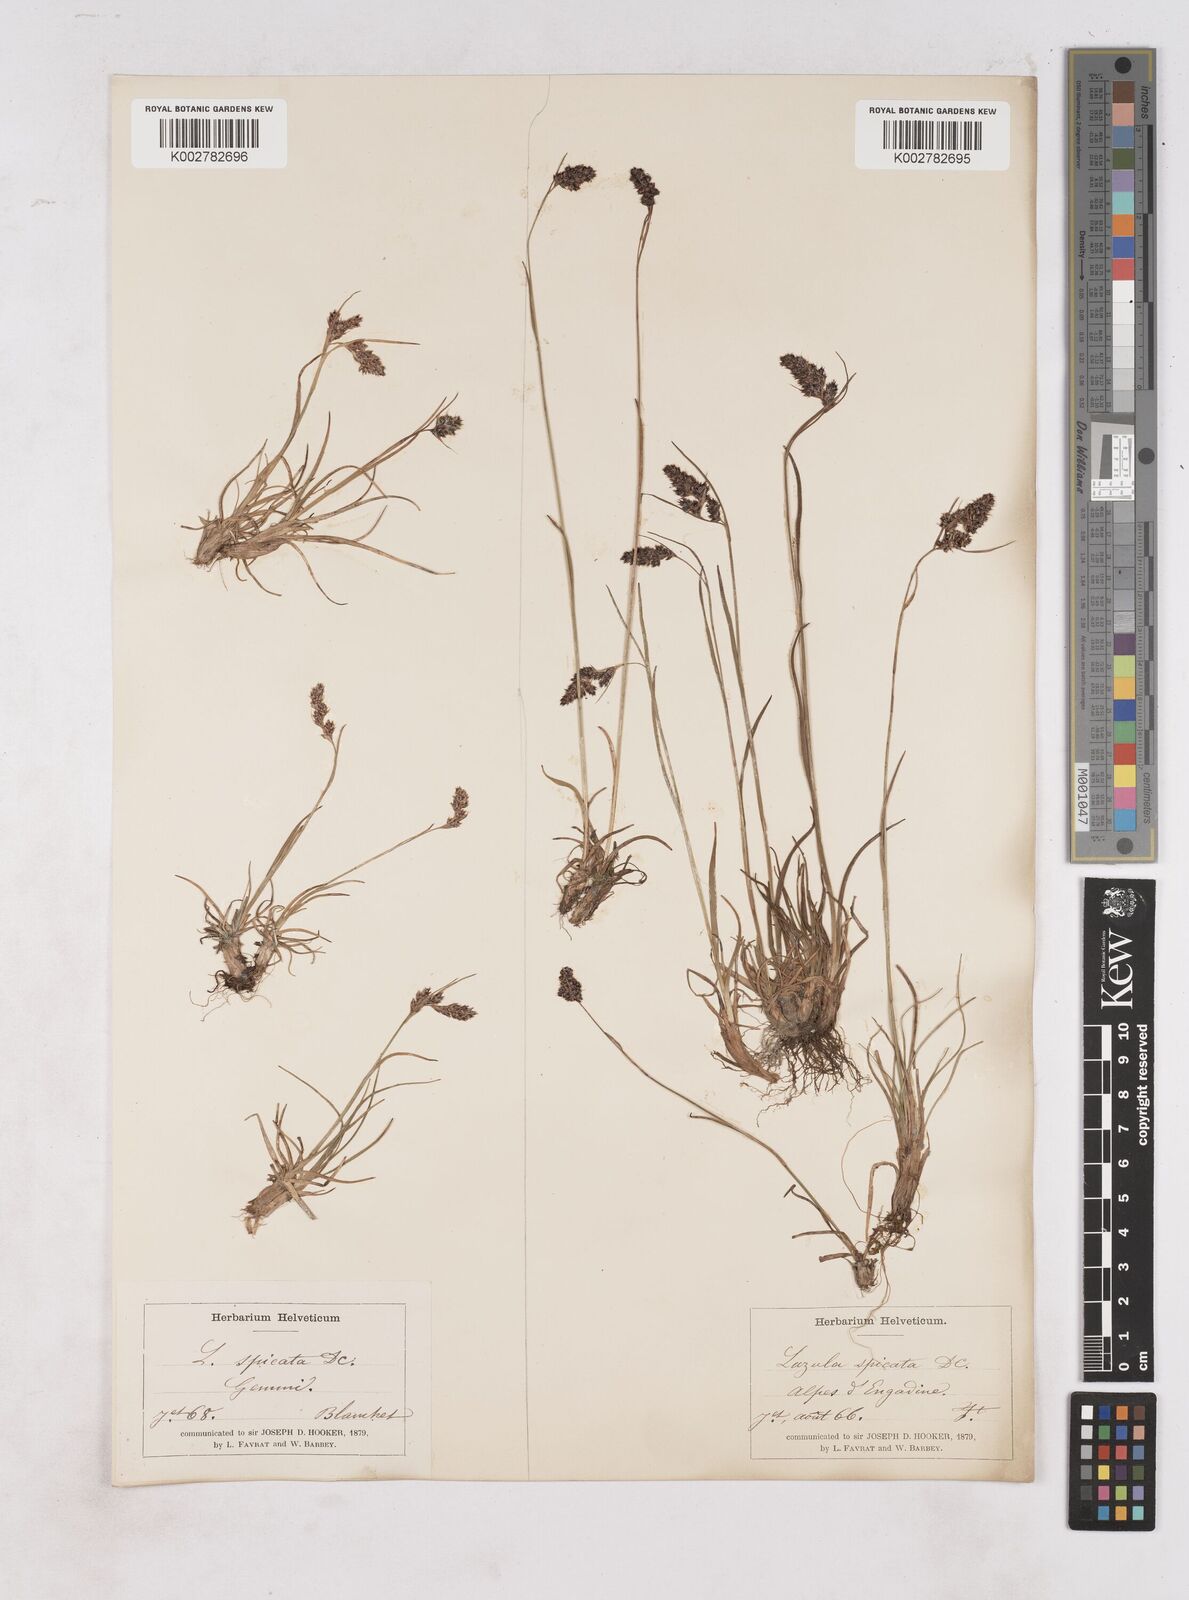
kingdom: Plantae
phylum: Tracheophyta
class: Liliopsida
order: Poales
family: Juncaceae
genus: Luzula
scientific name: Luzula spicata
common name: Spiked wood-rush
